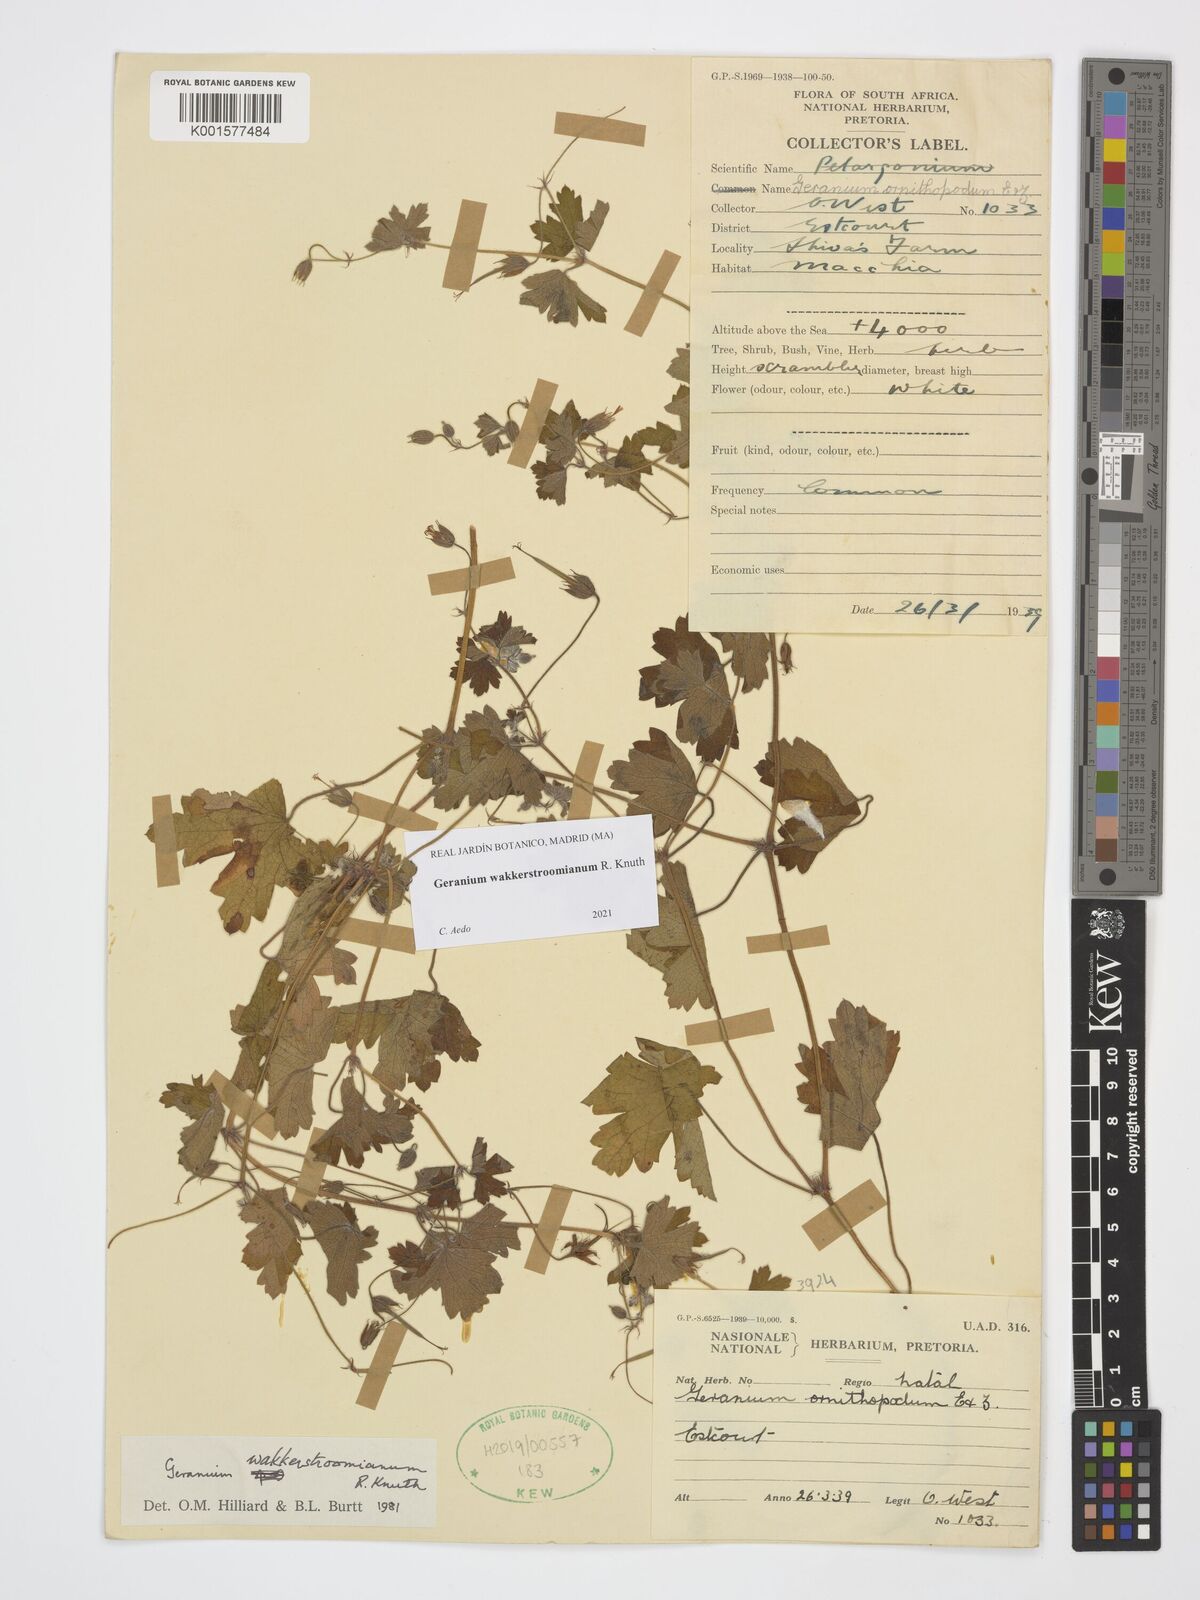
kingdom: Plantae
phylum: Tracheophyta
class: Magnoliopsida
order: Geraniales
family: Geraniaceae
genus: Geranium
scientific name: Geranium wakkerstroomianum
